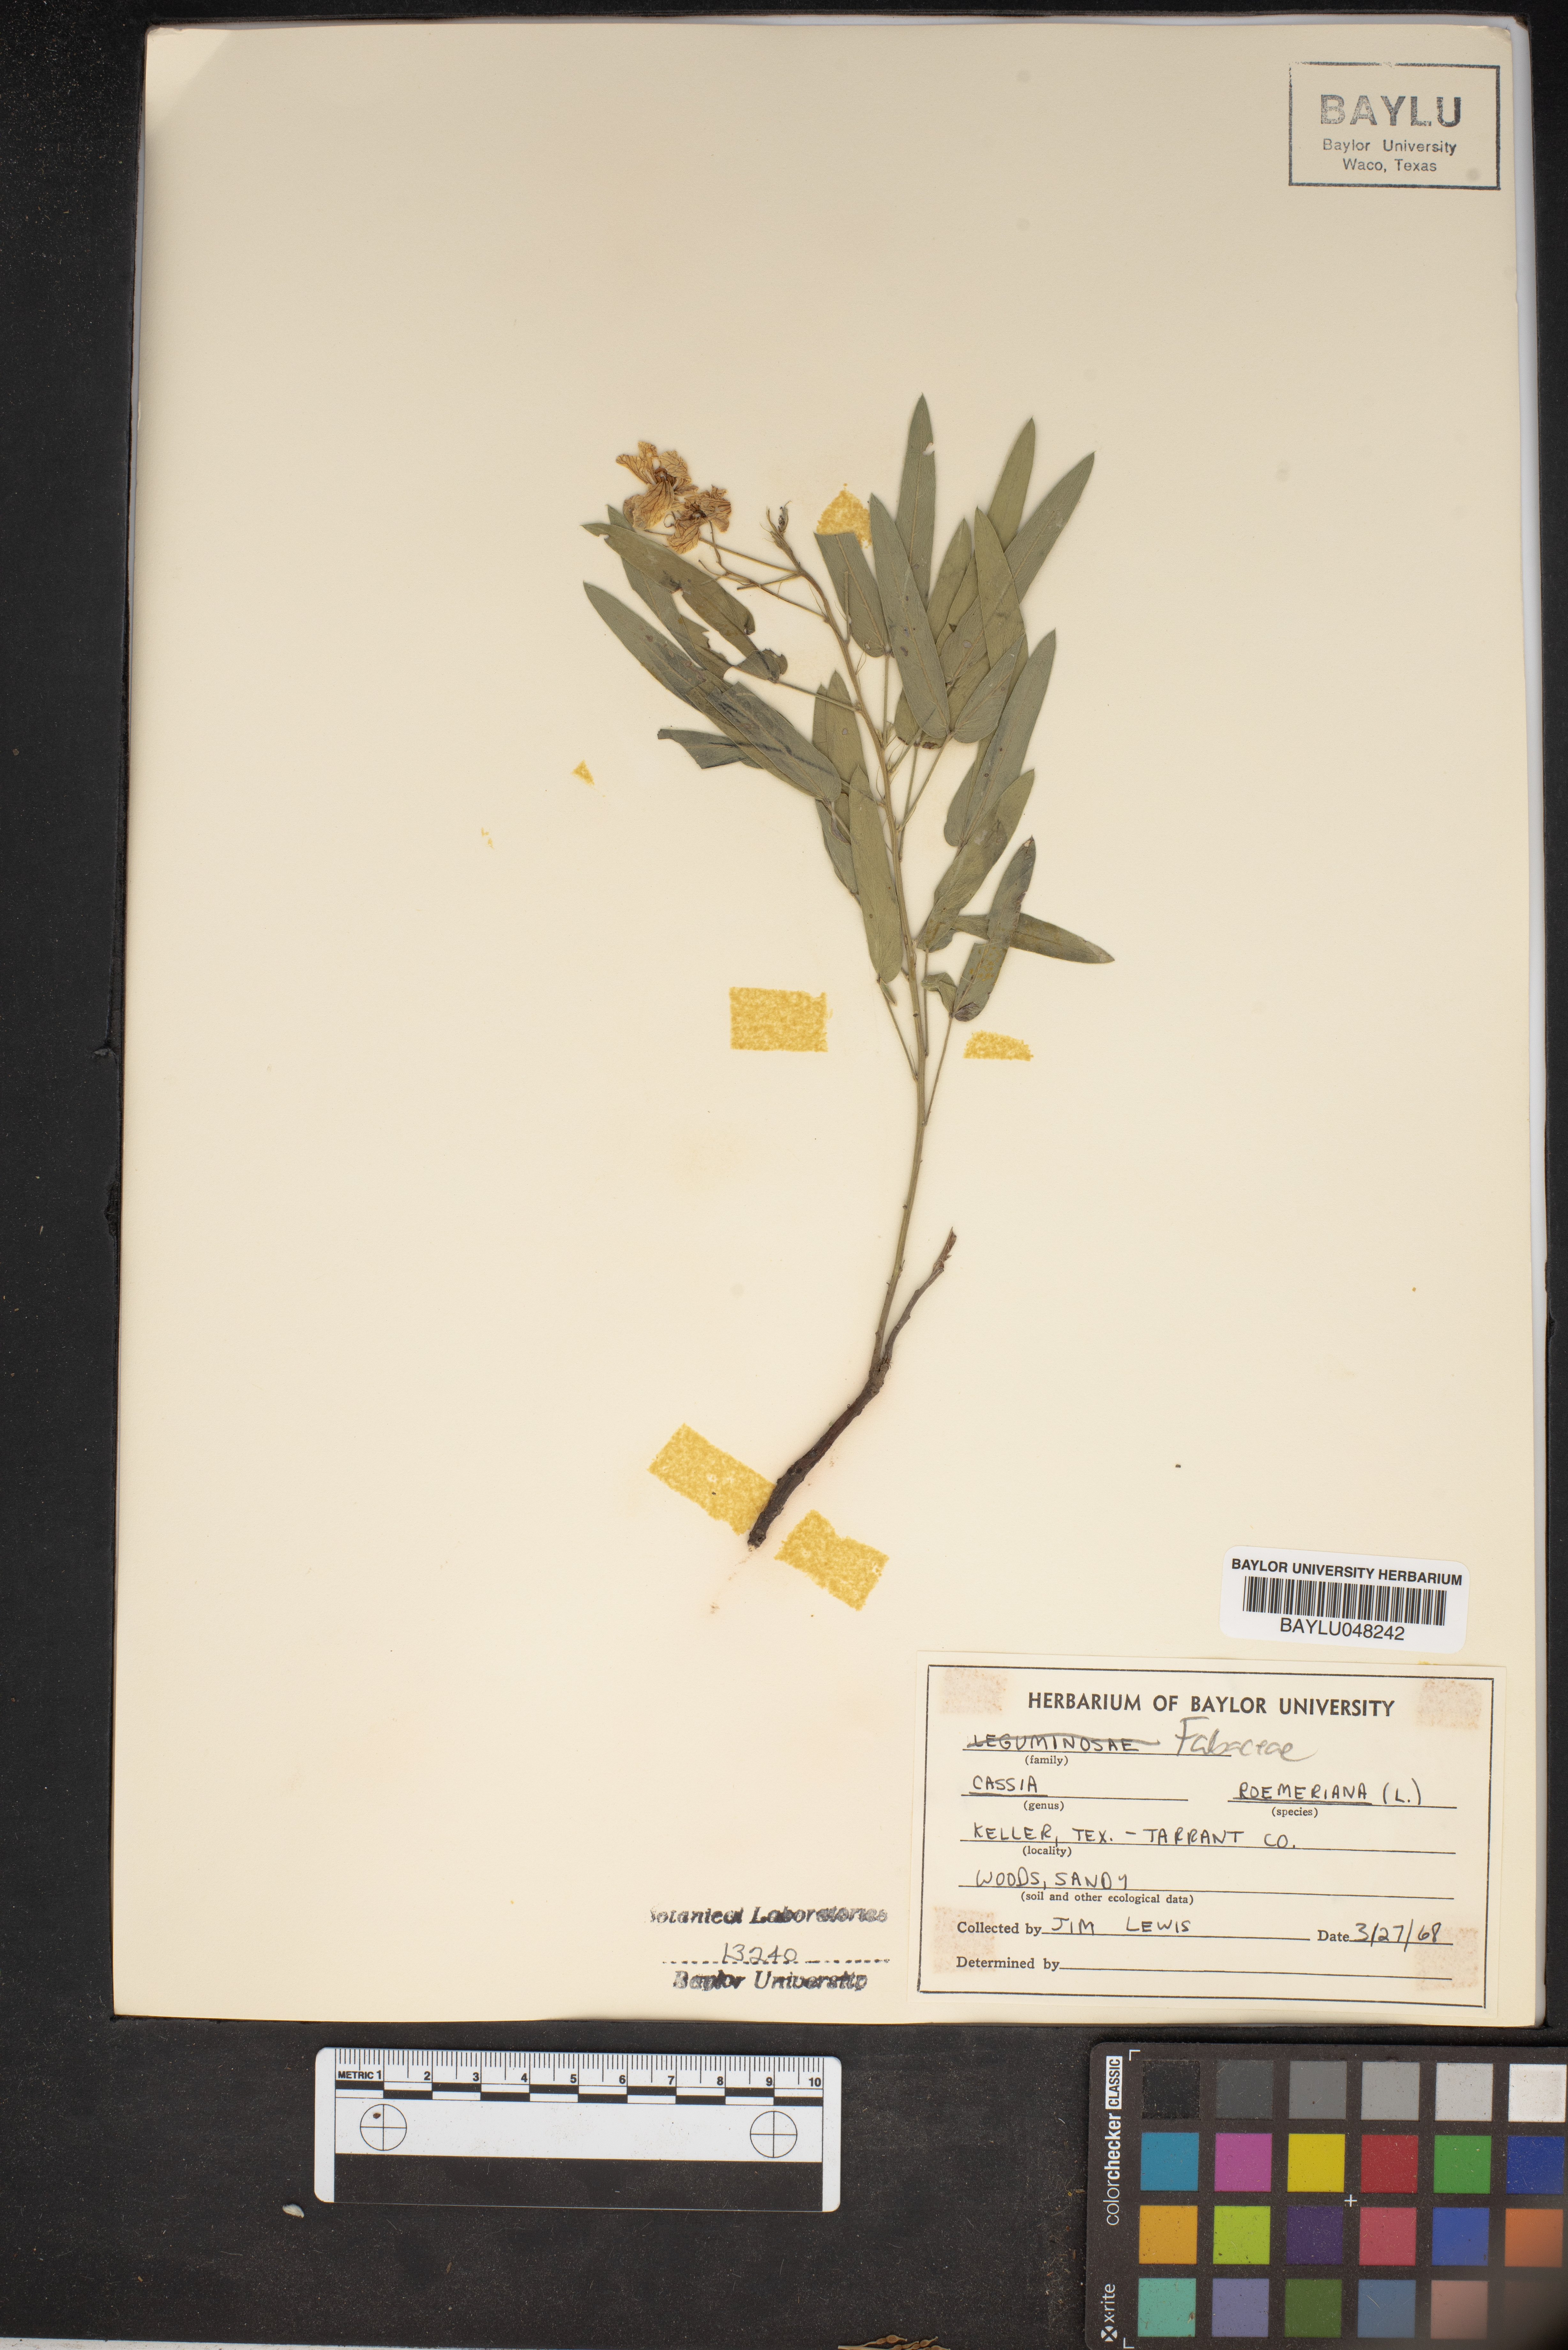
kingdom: Plantae
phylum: Tracheophyta
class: Magnoliopsida
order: Fabales
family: Fabaceae
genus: Senna
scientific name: Senna roemeriana
